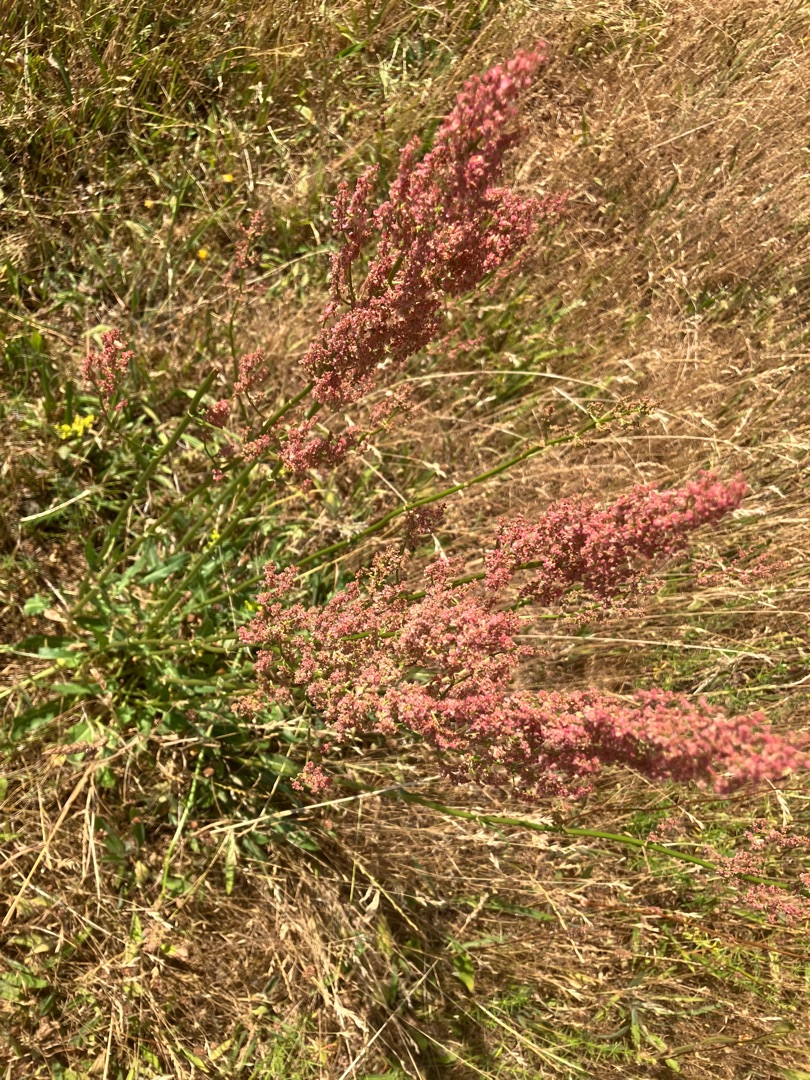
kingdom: Plantae
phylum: Tracheophyta
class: Magnoliopsida
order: Caryophyllales
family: Polygonaceae
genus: Rumex
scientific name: Rumex thyrsiflorus
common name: Dusk-syre
